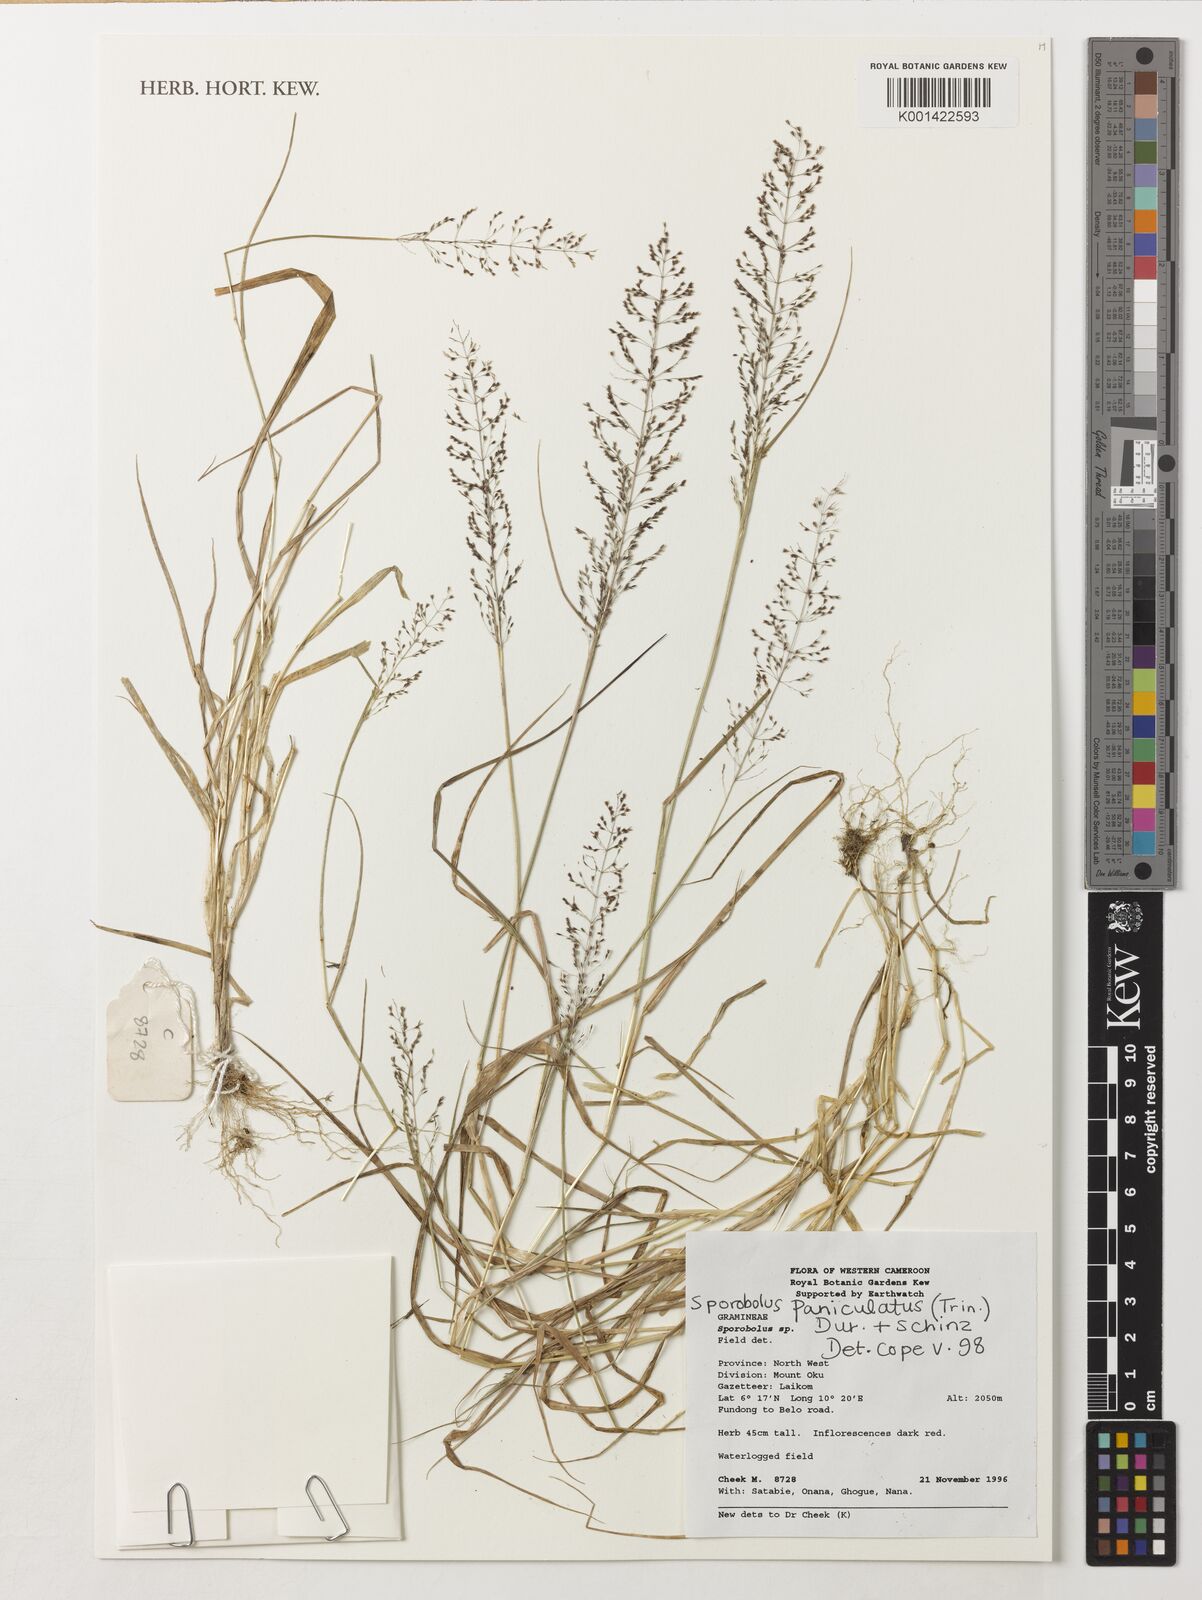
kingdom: Plantae
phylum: Tracheophyta
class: Liliopsida
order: Poales
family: Poaceae
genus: Sporobolus
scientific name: Sporobolus paniculatus
